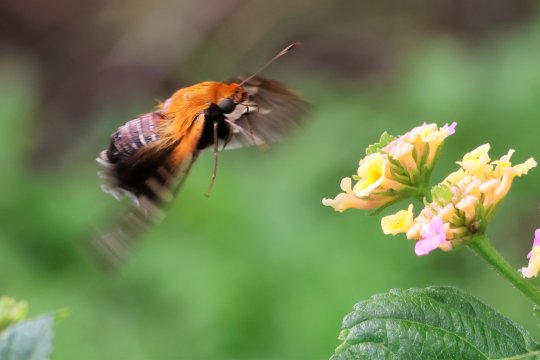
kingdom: Animalia
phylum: Arthropoda
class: Insecta
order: Lepidoptera
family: Hesperiidae
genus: Proteides
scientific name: Proteides mercurius
